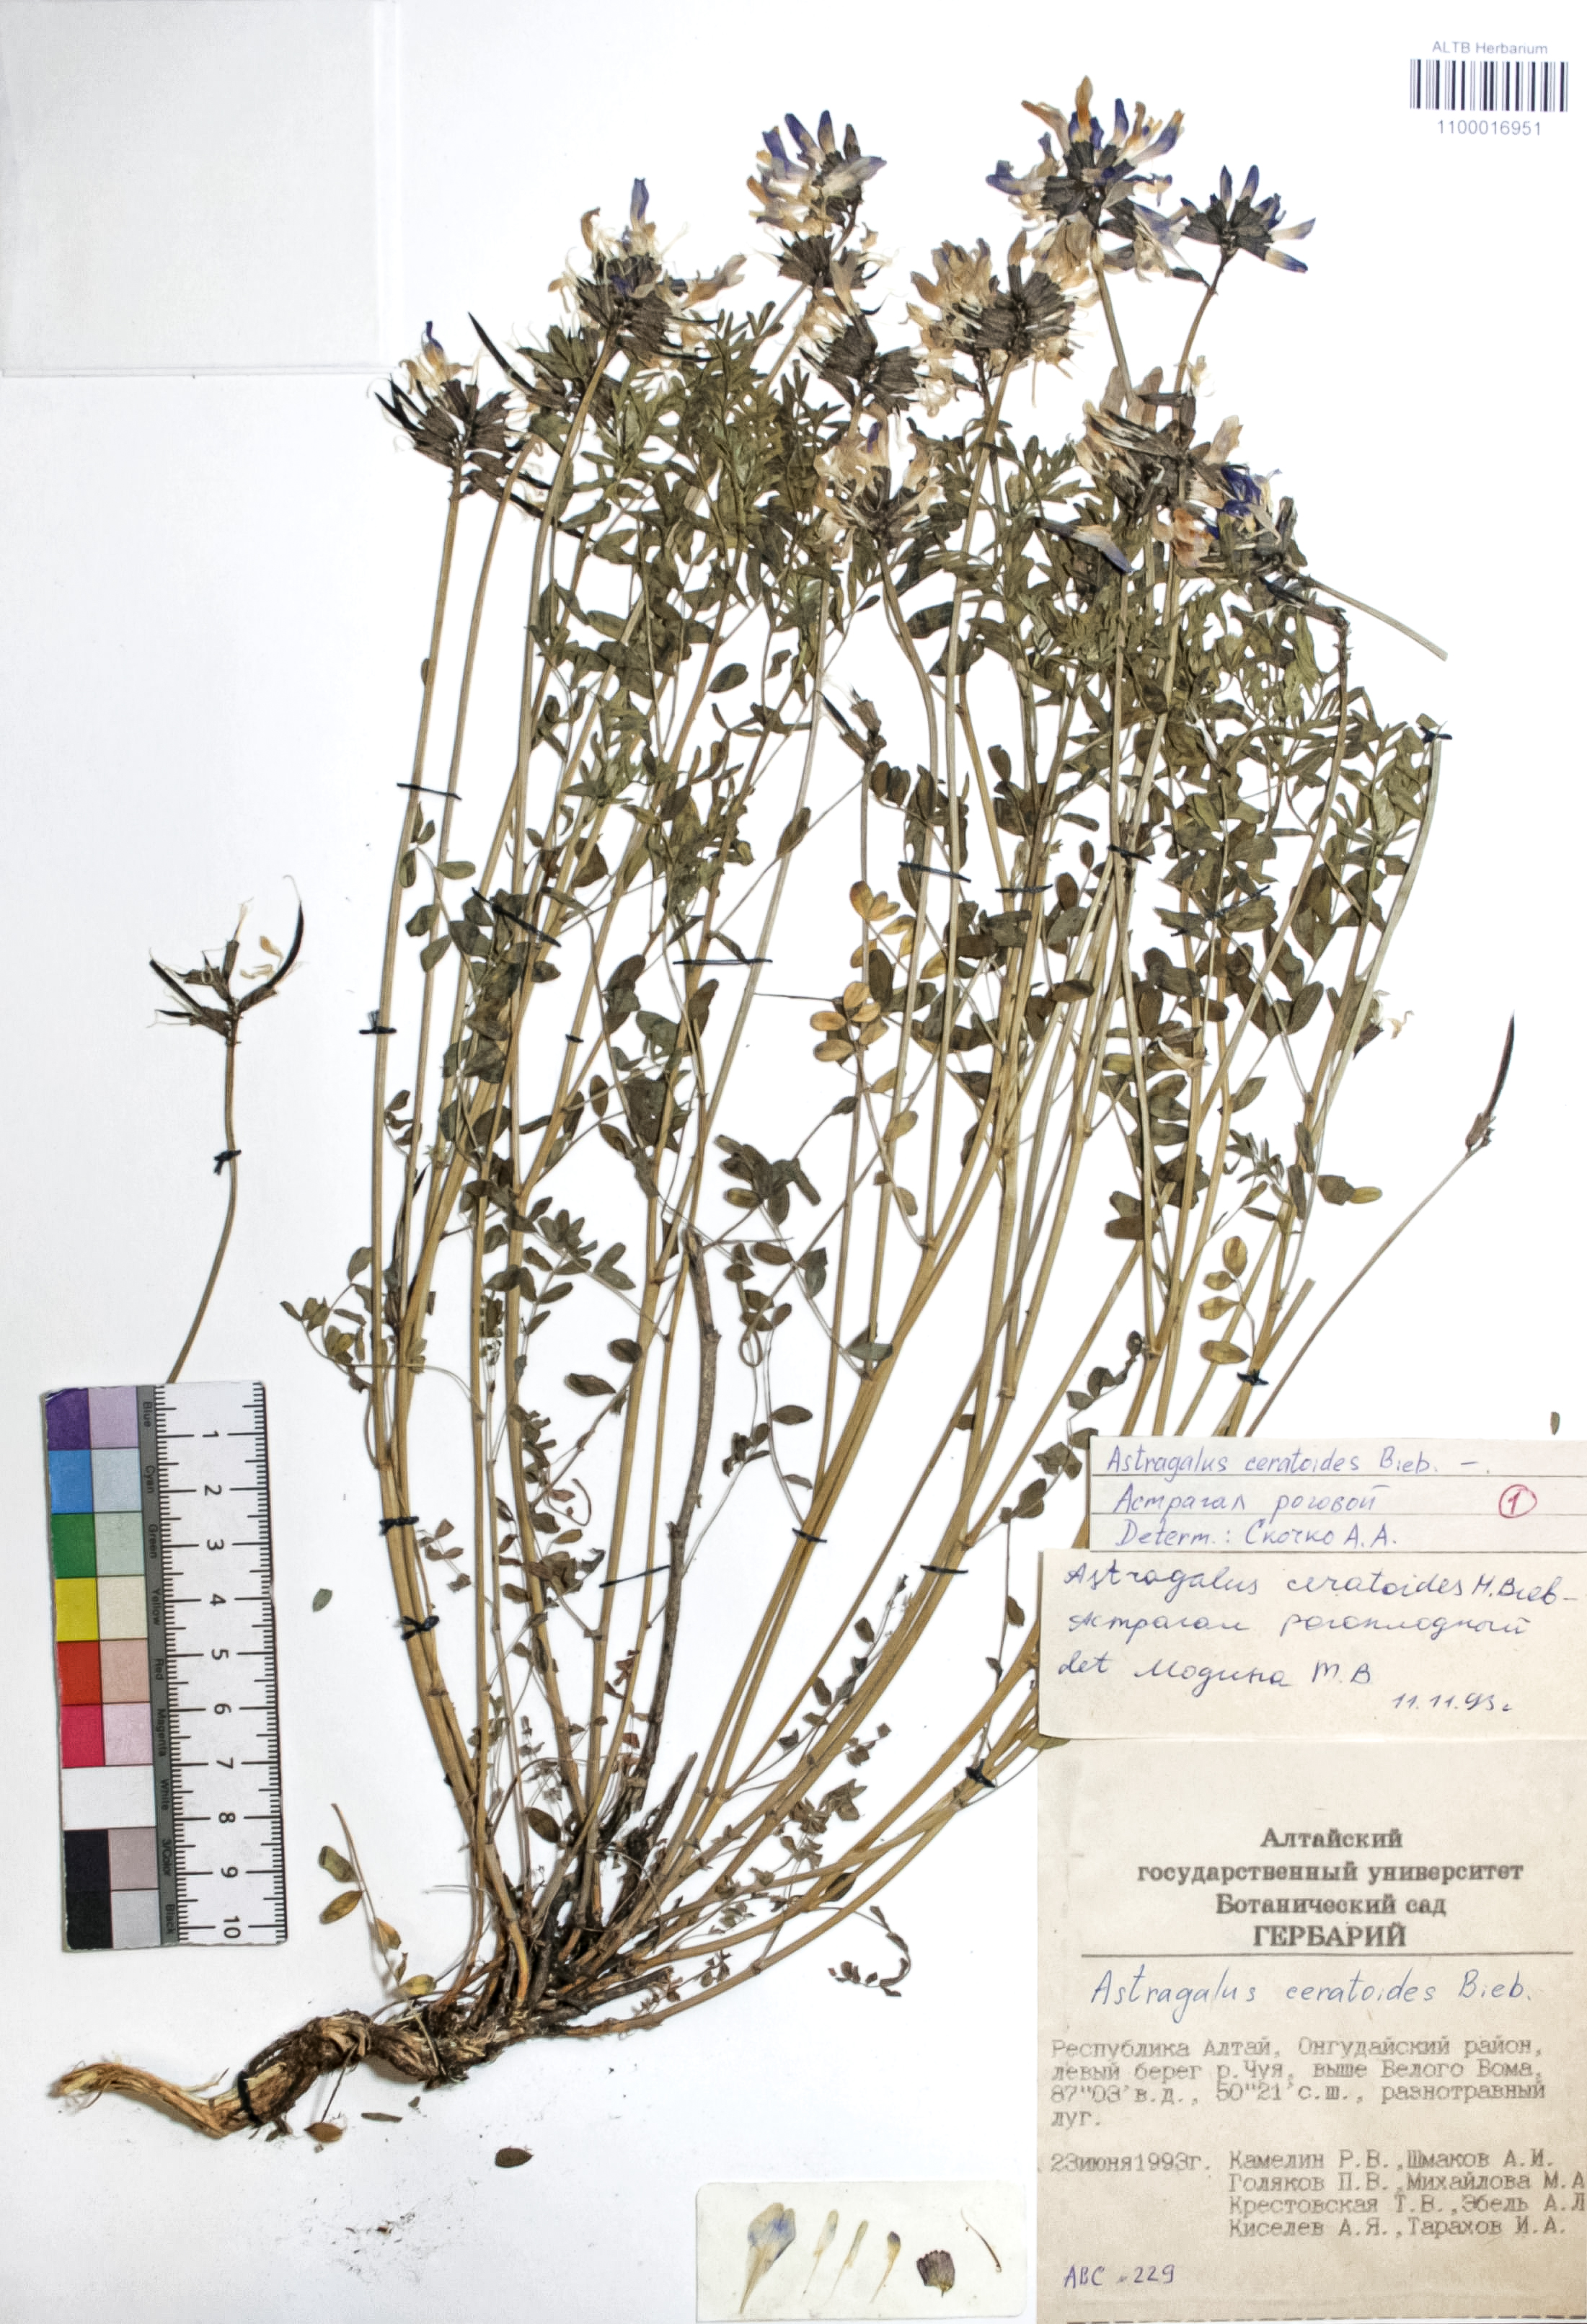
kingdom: Plantae
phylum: Tracheophyta
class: Magnoliopsida
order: Fabales
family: Fabaceae
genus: Astragalus
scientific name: Astragalus ceratoides
